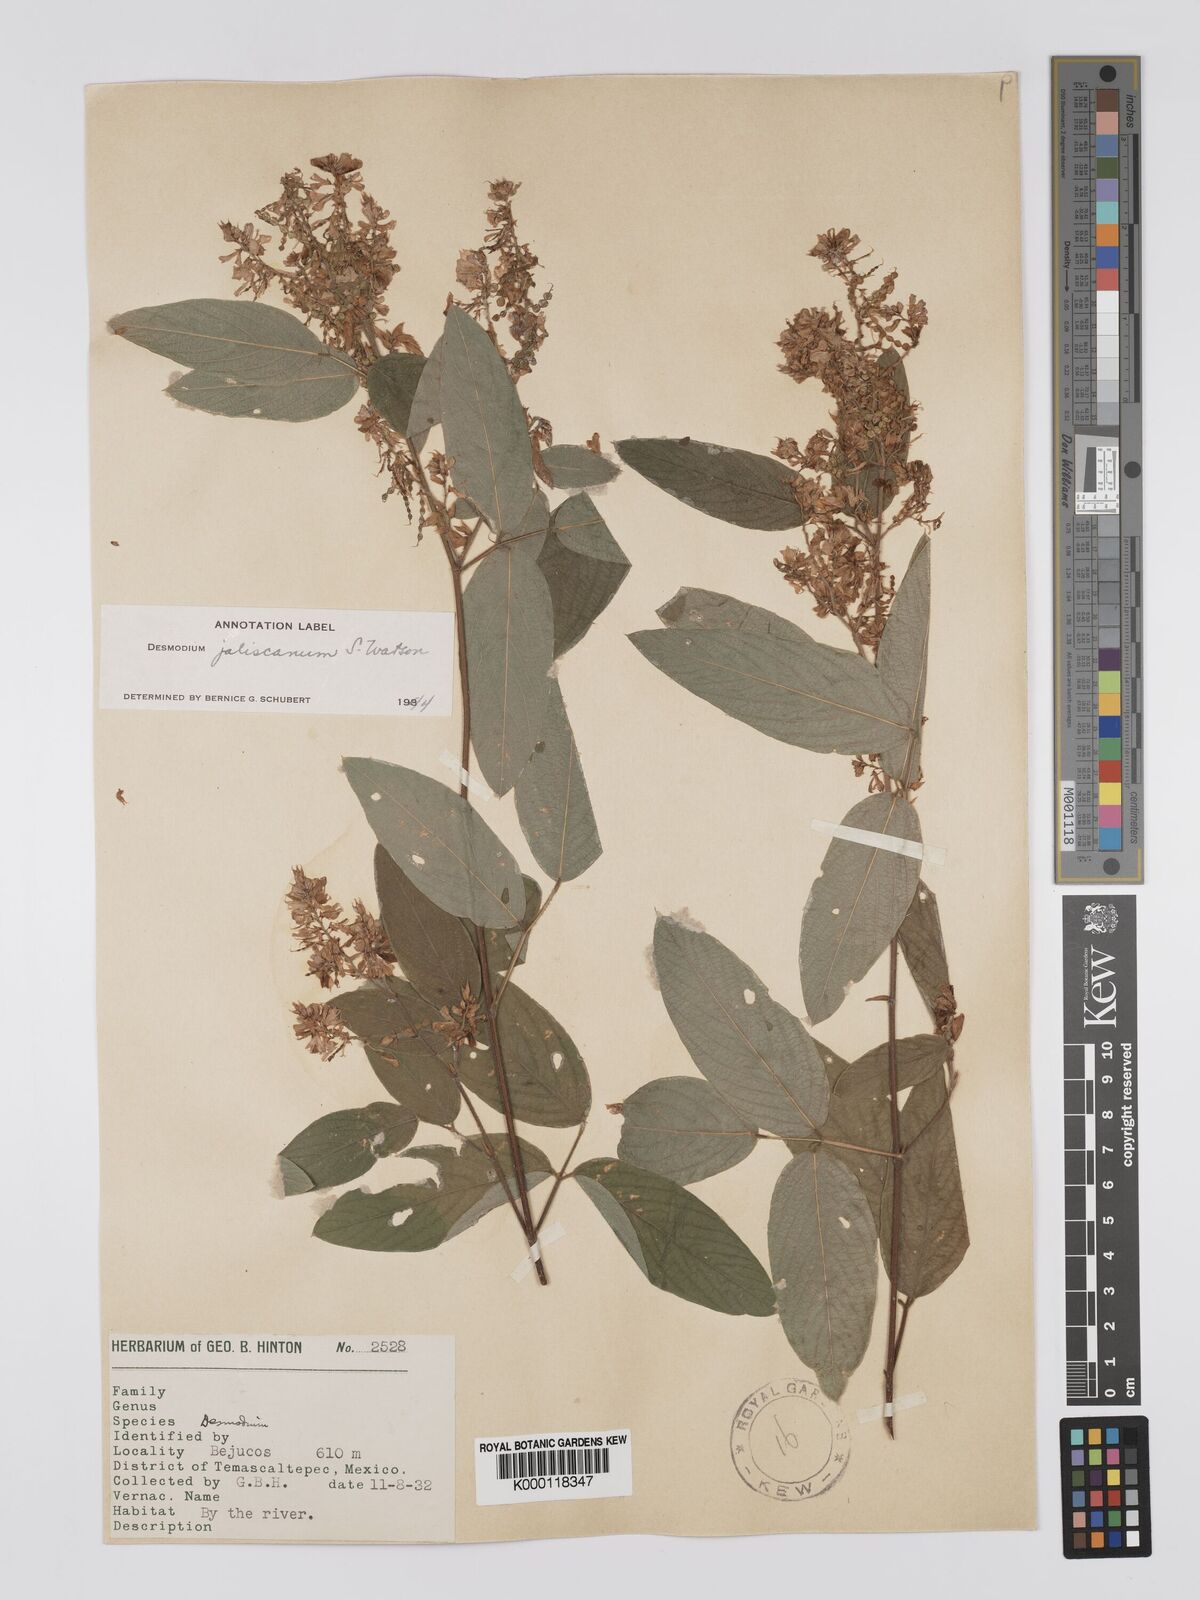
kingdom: Plantae
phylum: Tracheophyta
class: Magnoliopsida
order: Fabales
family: Fabaceae
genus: Desmodium
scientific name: Desmodium jaliscanum
